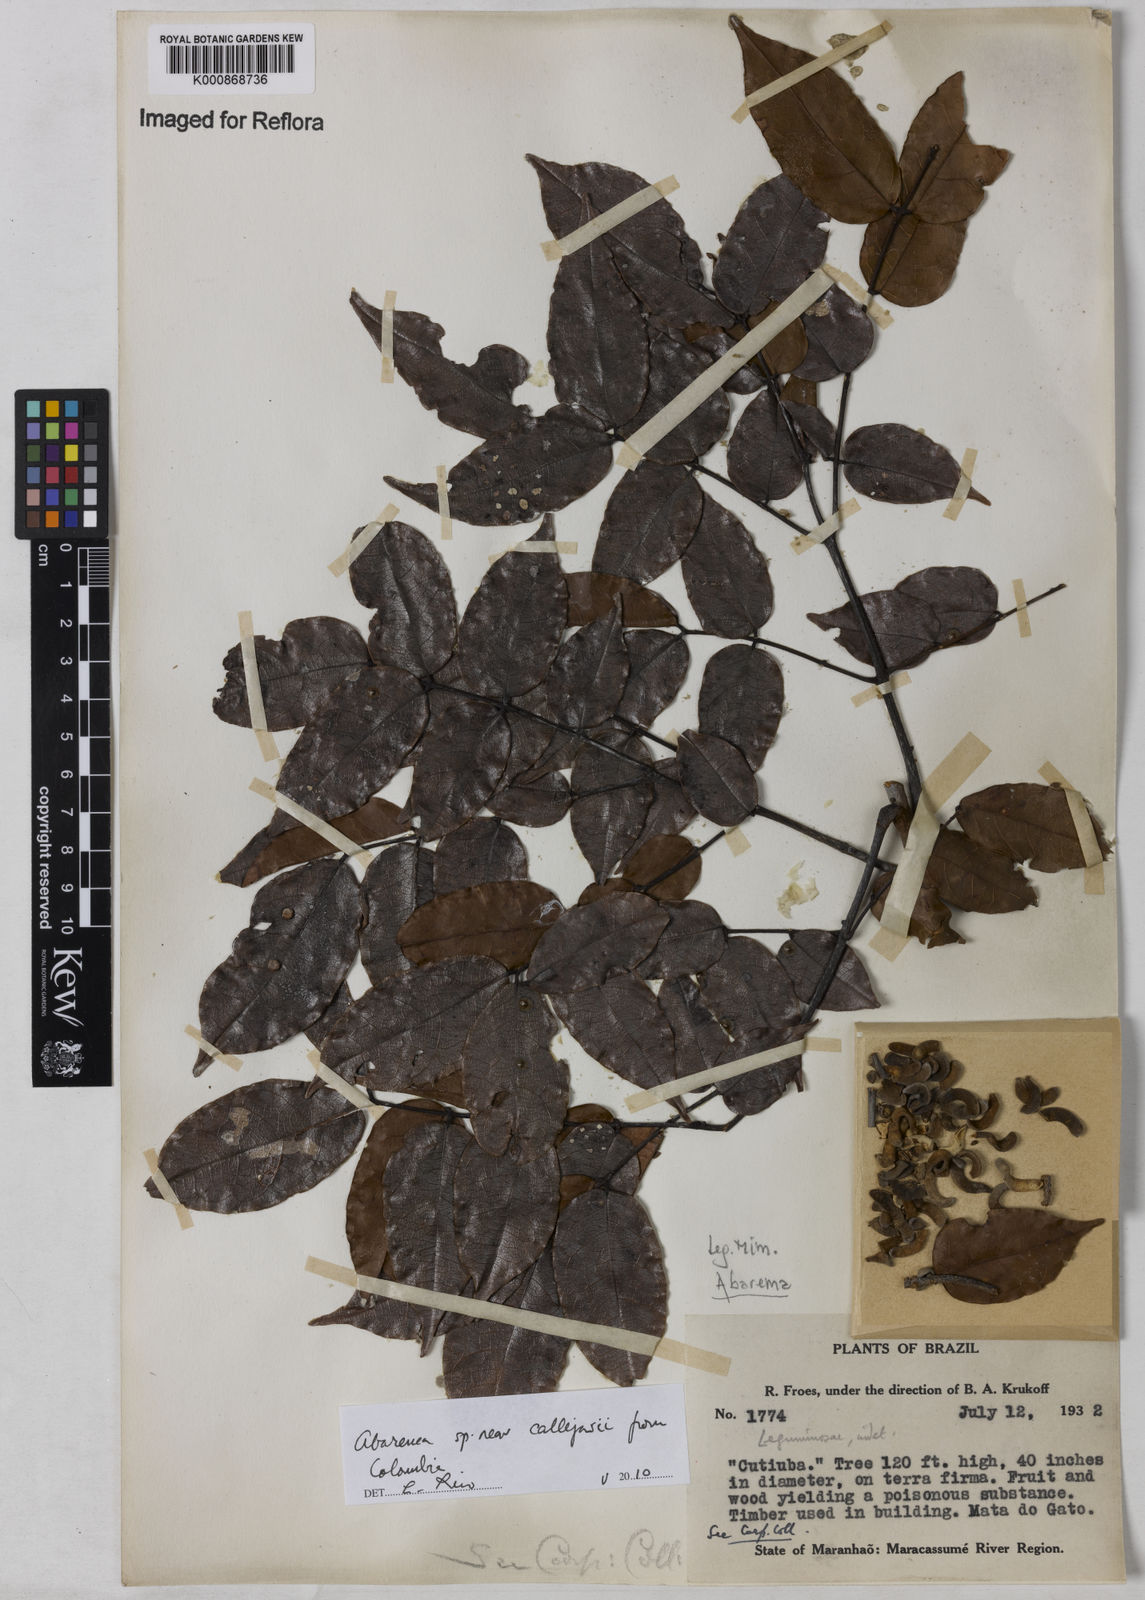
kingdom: Plantae
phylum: Tracheophyta
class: Magnoliopsida
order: Fabales
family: Fabaceae
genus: Abarema
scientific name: Abarema
